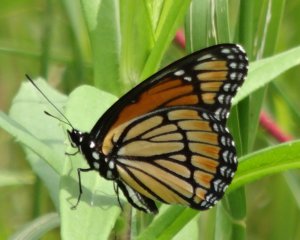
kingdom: Animalia
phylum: Arthropoda
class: Insecta
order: Lepidoptera
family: Nymphalidae
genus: Limenitis
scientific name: Limenitis archippus
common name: Viceroy
